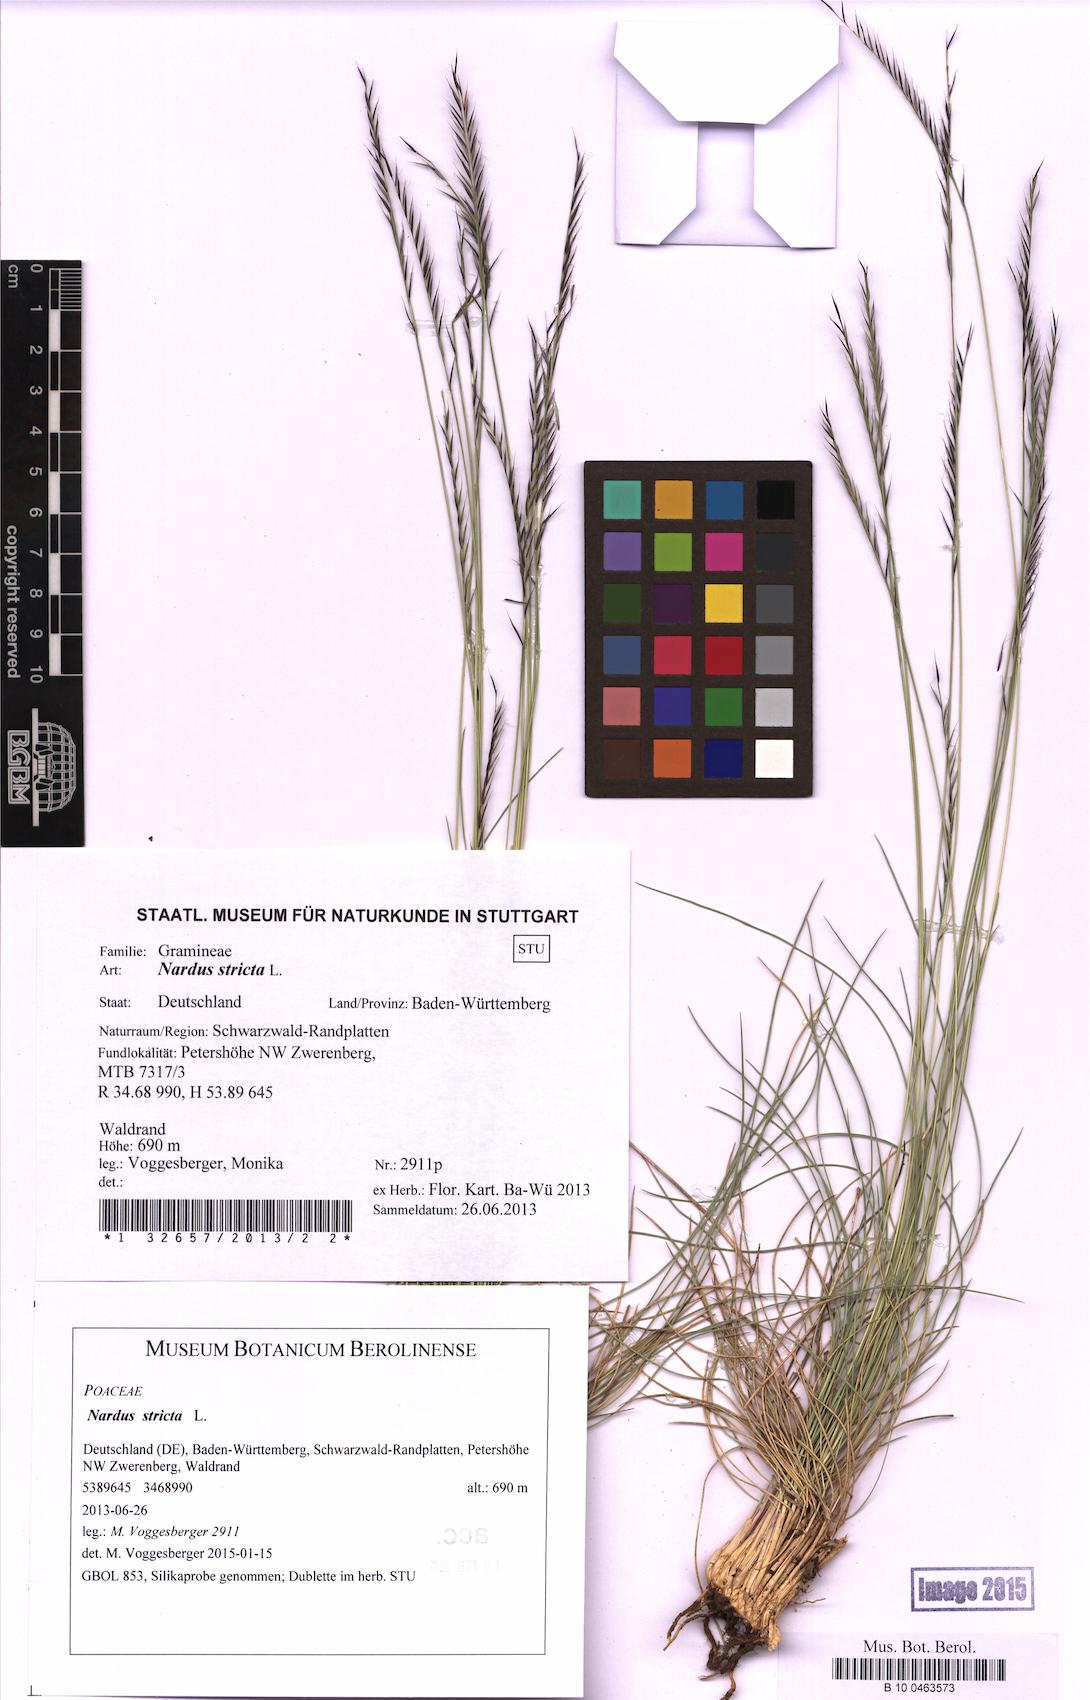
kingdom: Plantae
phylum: Tracheophyta
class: Liliopsida
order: Poales
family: Poaceae
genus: Nardus
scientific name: Nardus stricta
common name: Mat-grass
